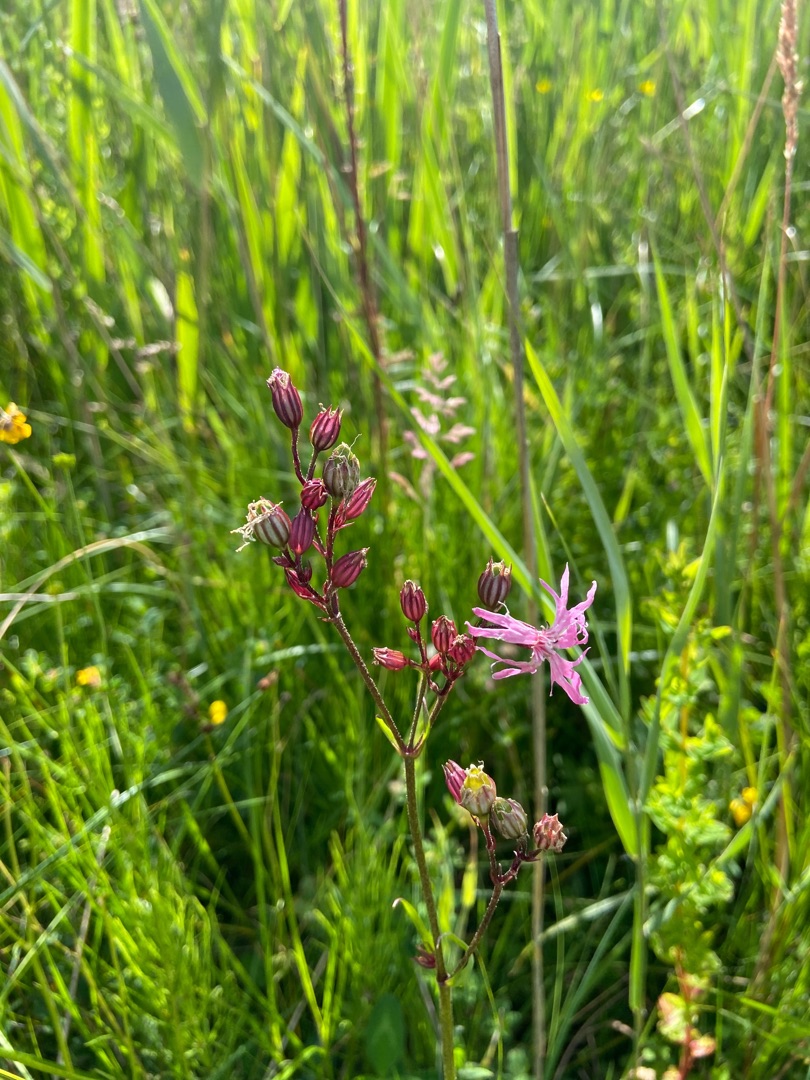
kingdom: Plantae
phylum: Tracheophyta
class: Magnoliopsida
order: Caryophyllales
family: Caryophyllaceae
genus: Silene
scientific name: Silene flos-cuculi
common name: Trævlekrone
